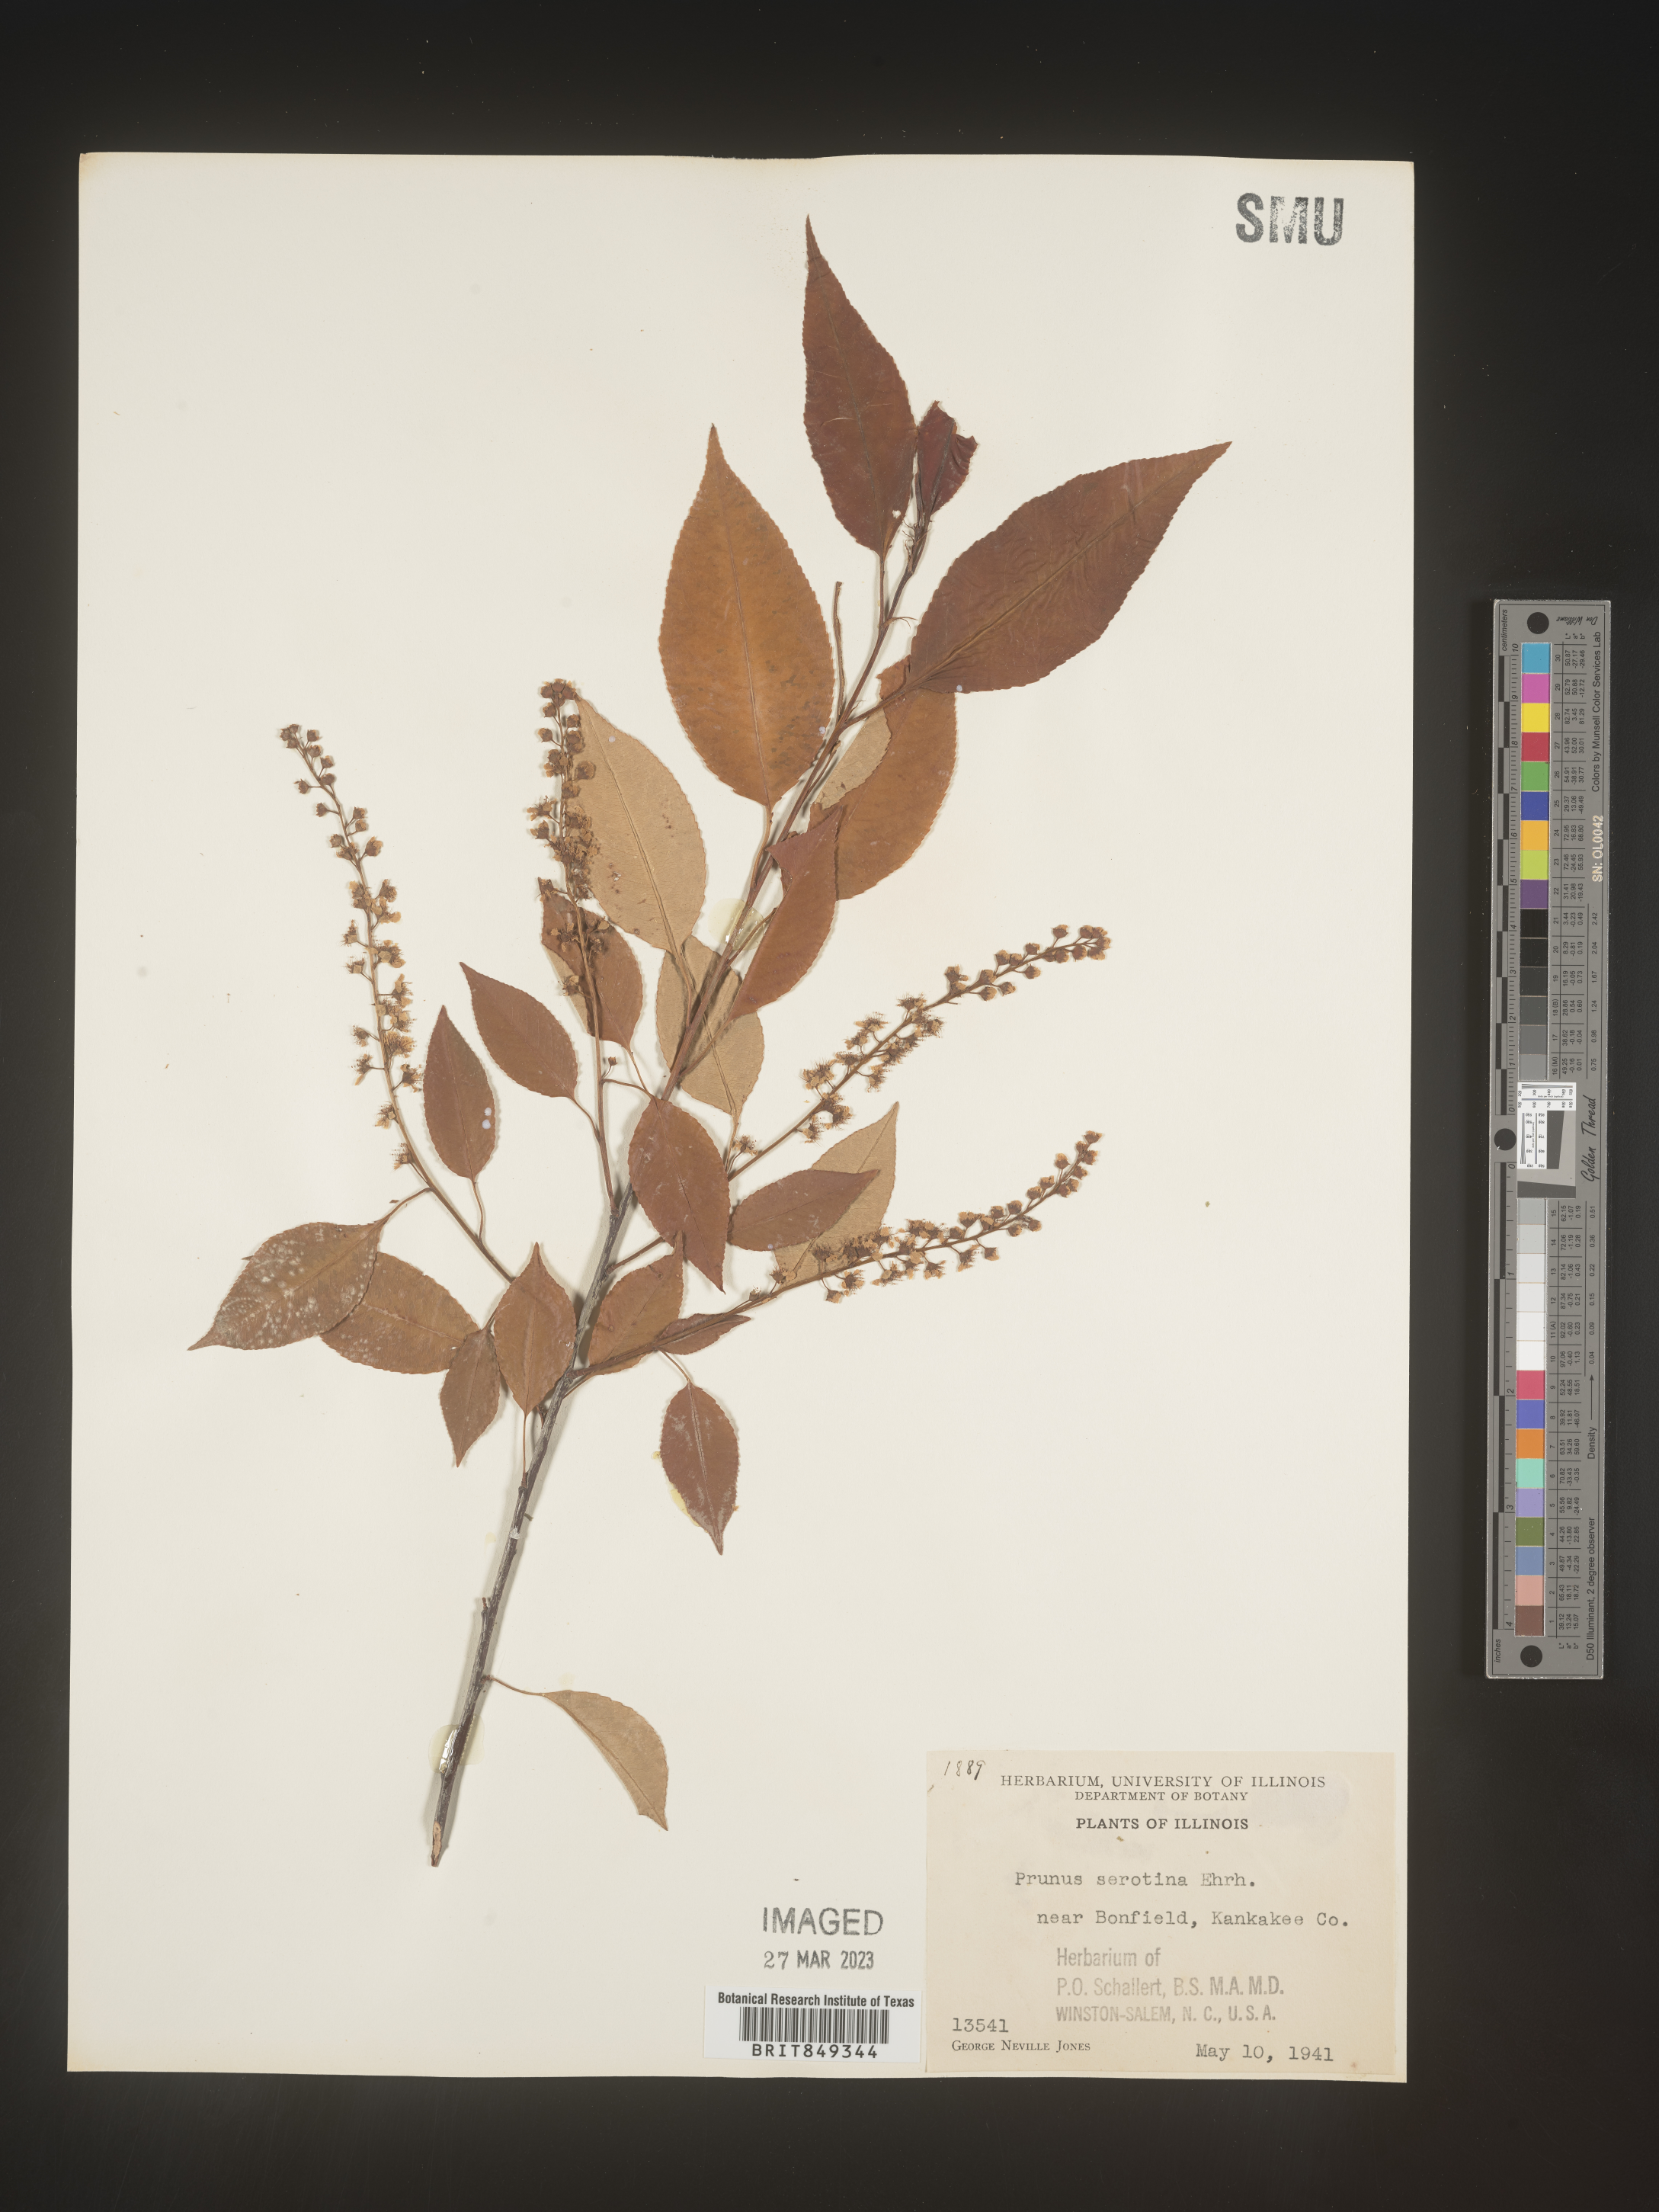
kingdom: Plantae
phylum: Tracheophyta
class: Magnoliopsida
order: Rosales
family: Rosaceae
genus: Prunus
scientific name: Prunus serotina
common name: Black cherry
